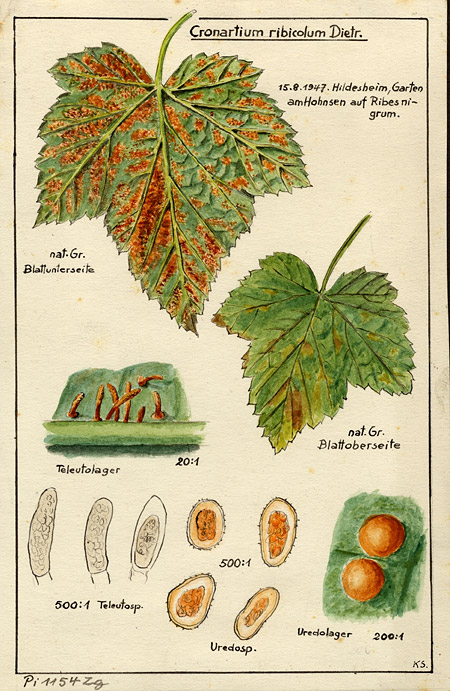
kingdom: Plantae
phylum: Tracheophyta
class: Magnoliopsida
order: Saxifragales
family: Grossulariaceae
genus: Ribes
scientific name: Ribes nigrum
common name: Black currant
